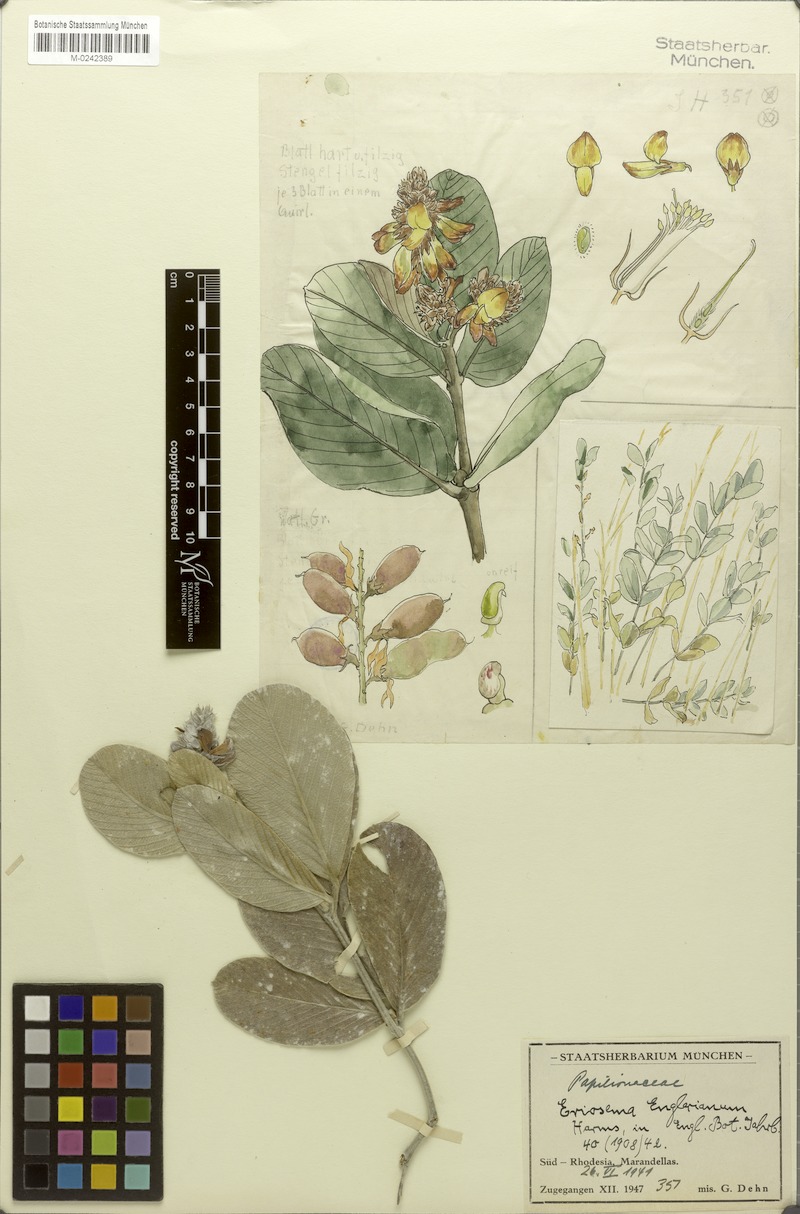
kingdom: Plantae
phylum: Tracheophyta
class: Magnoliopsida
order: Fabales
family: Fabaceae
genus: Eriosema
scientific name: Eriosema englerianum
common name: Blue bush
